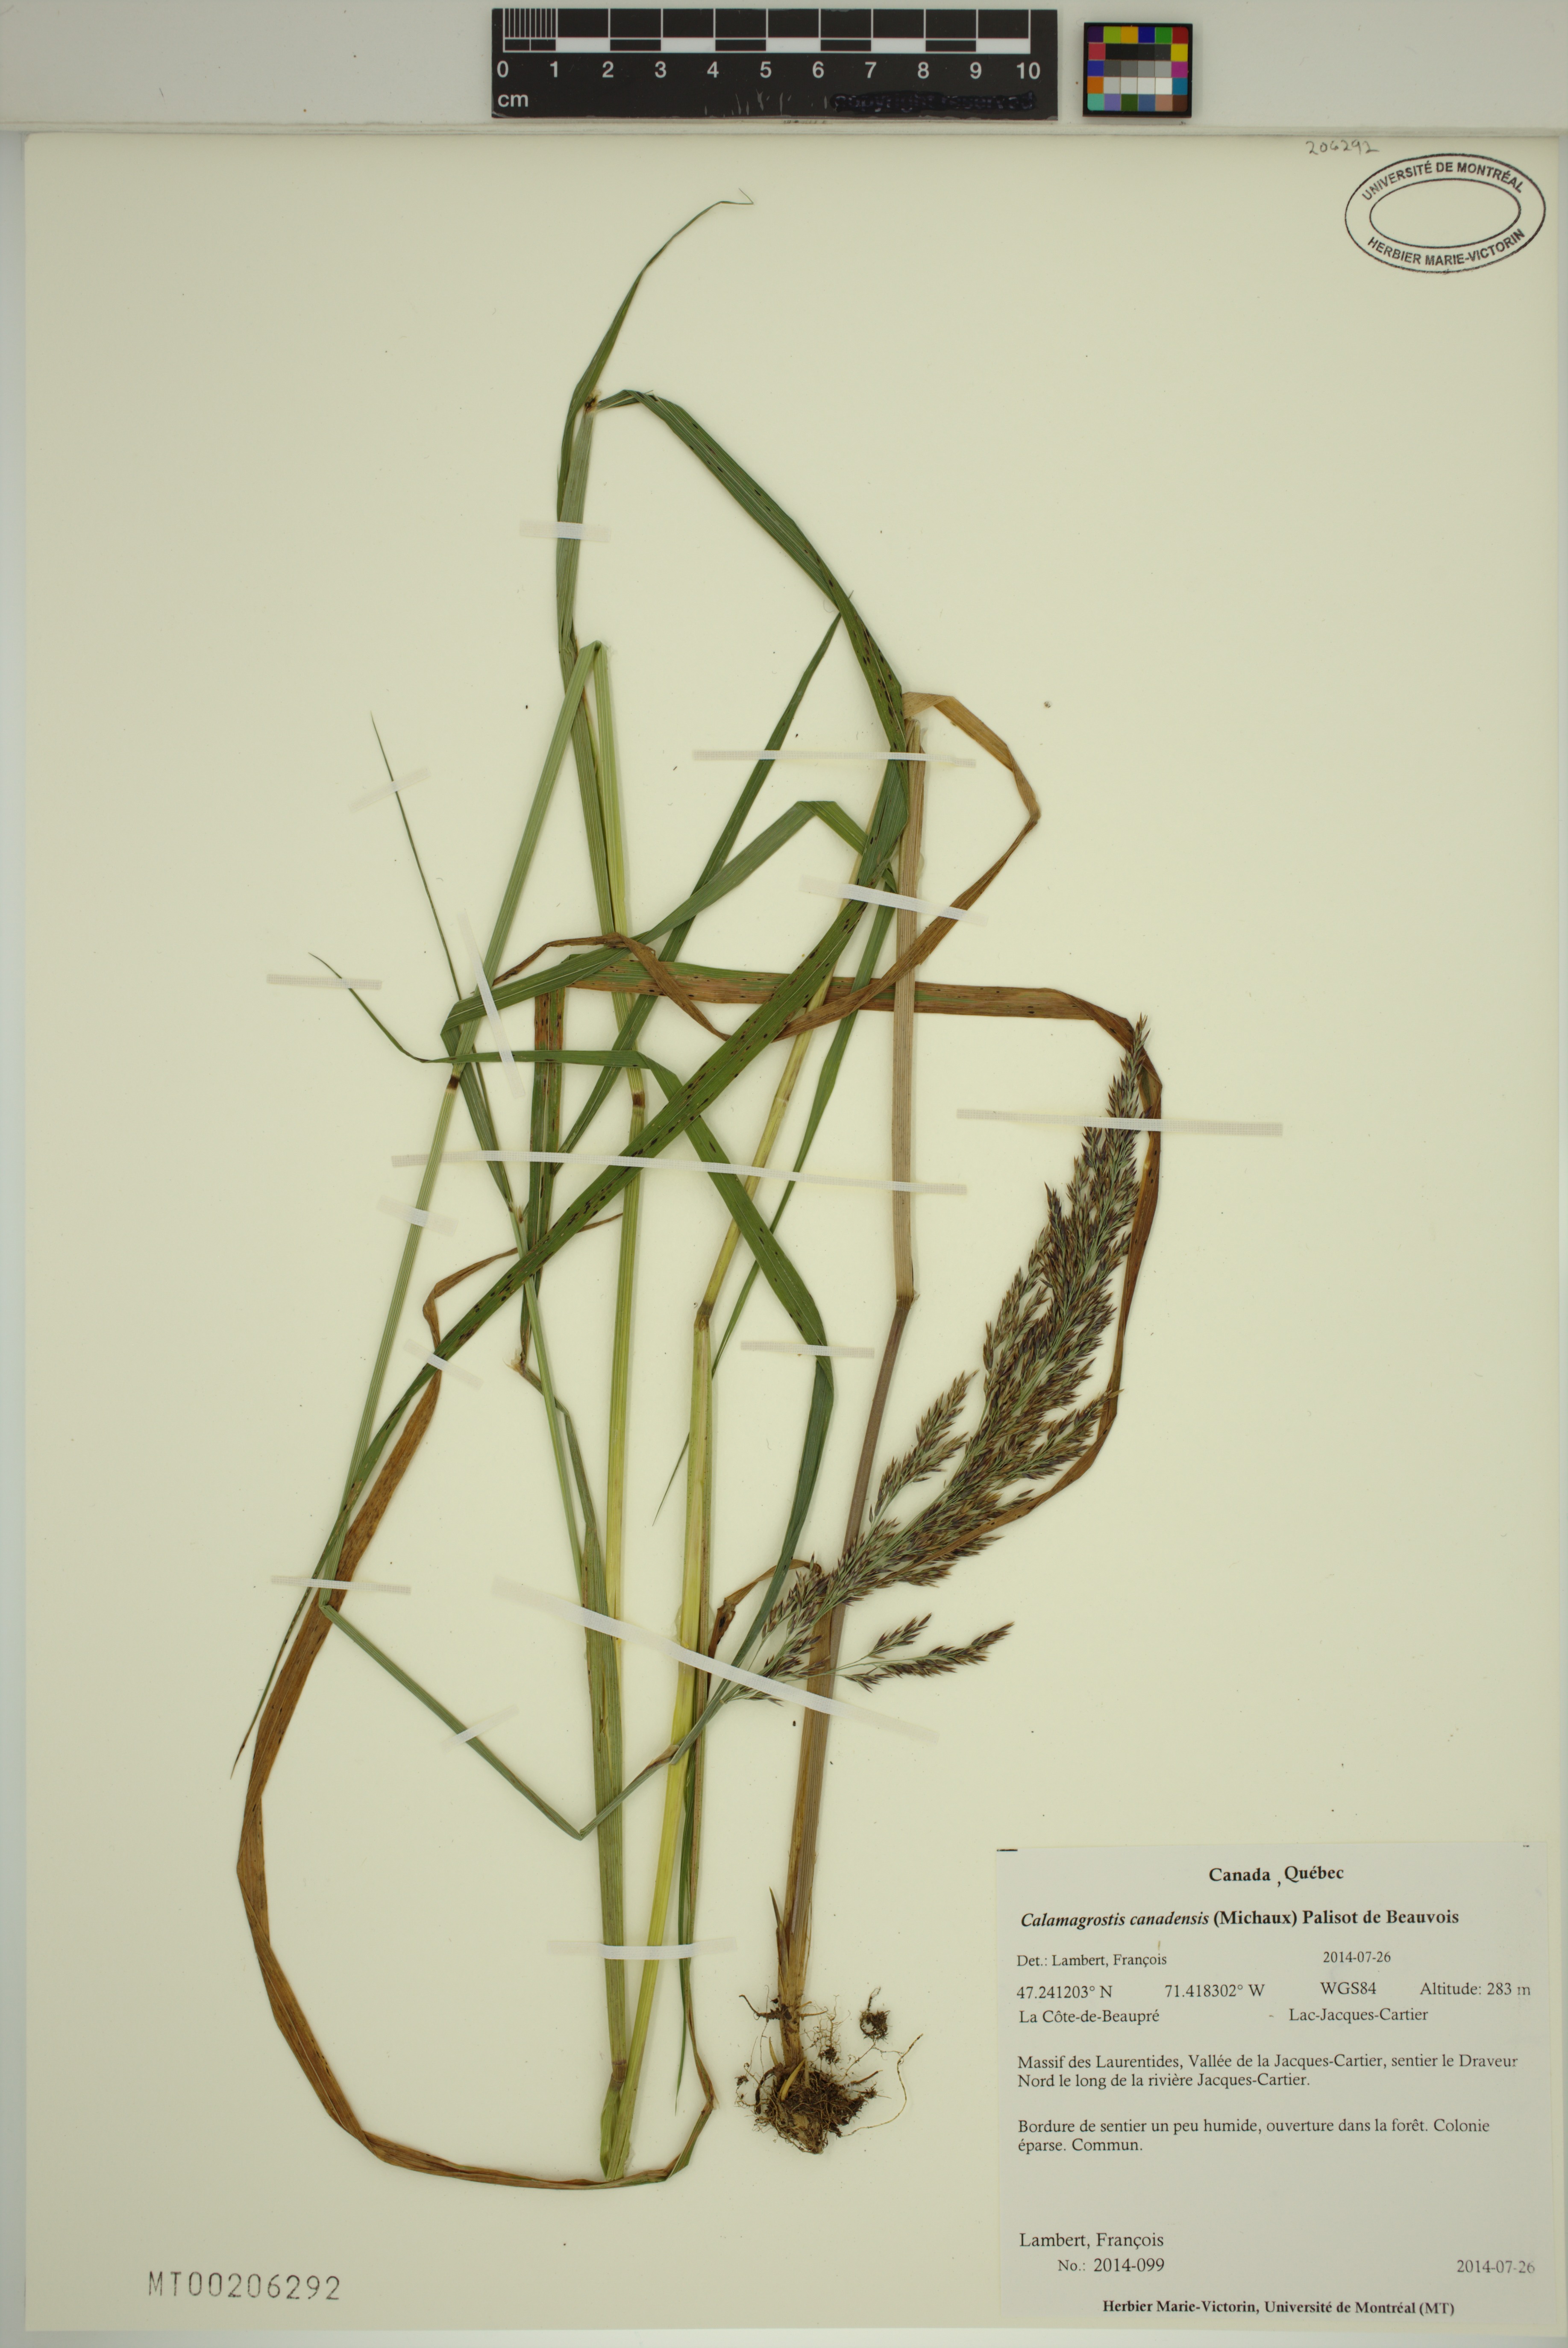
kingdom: Plantae
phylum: Tracheophyta
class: Liliopsida
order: Poales
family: Poaceae
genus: Calamagrostis
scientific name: Calamagrostis canadensis
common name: Canada bluejoint
